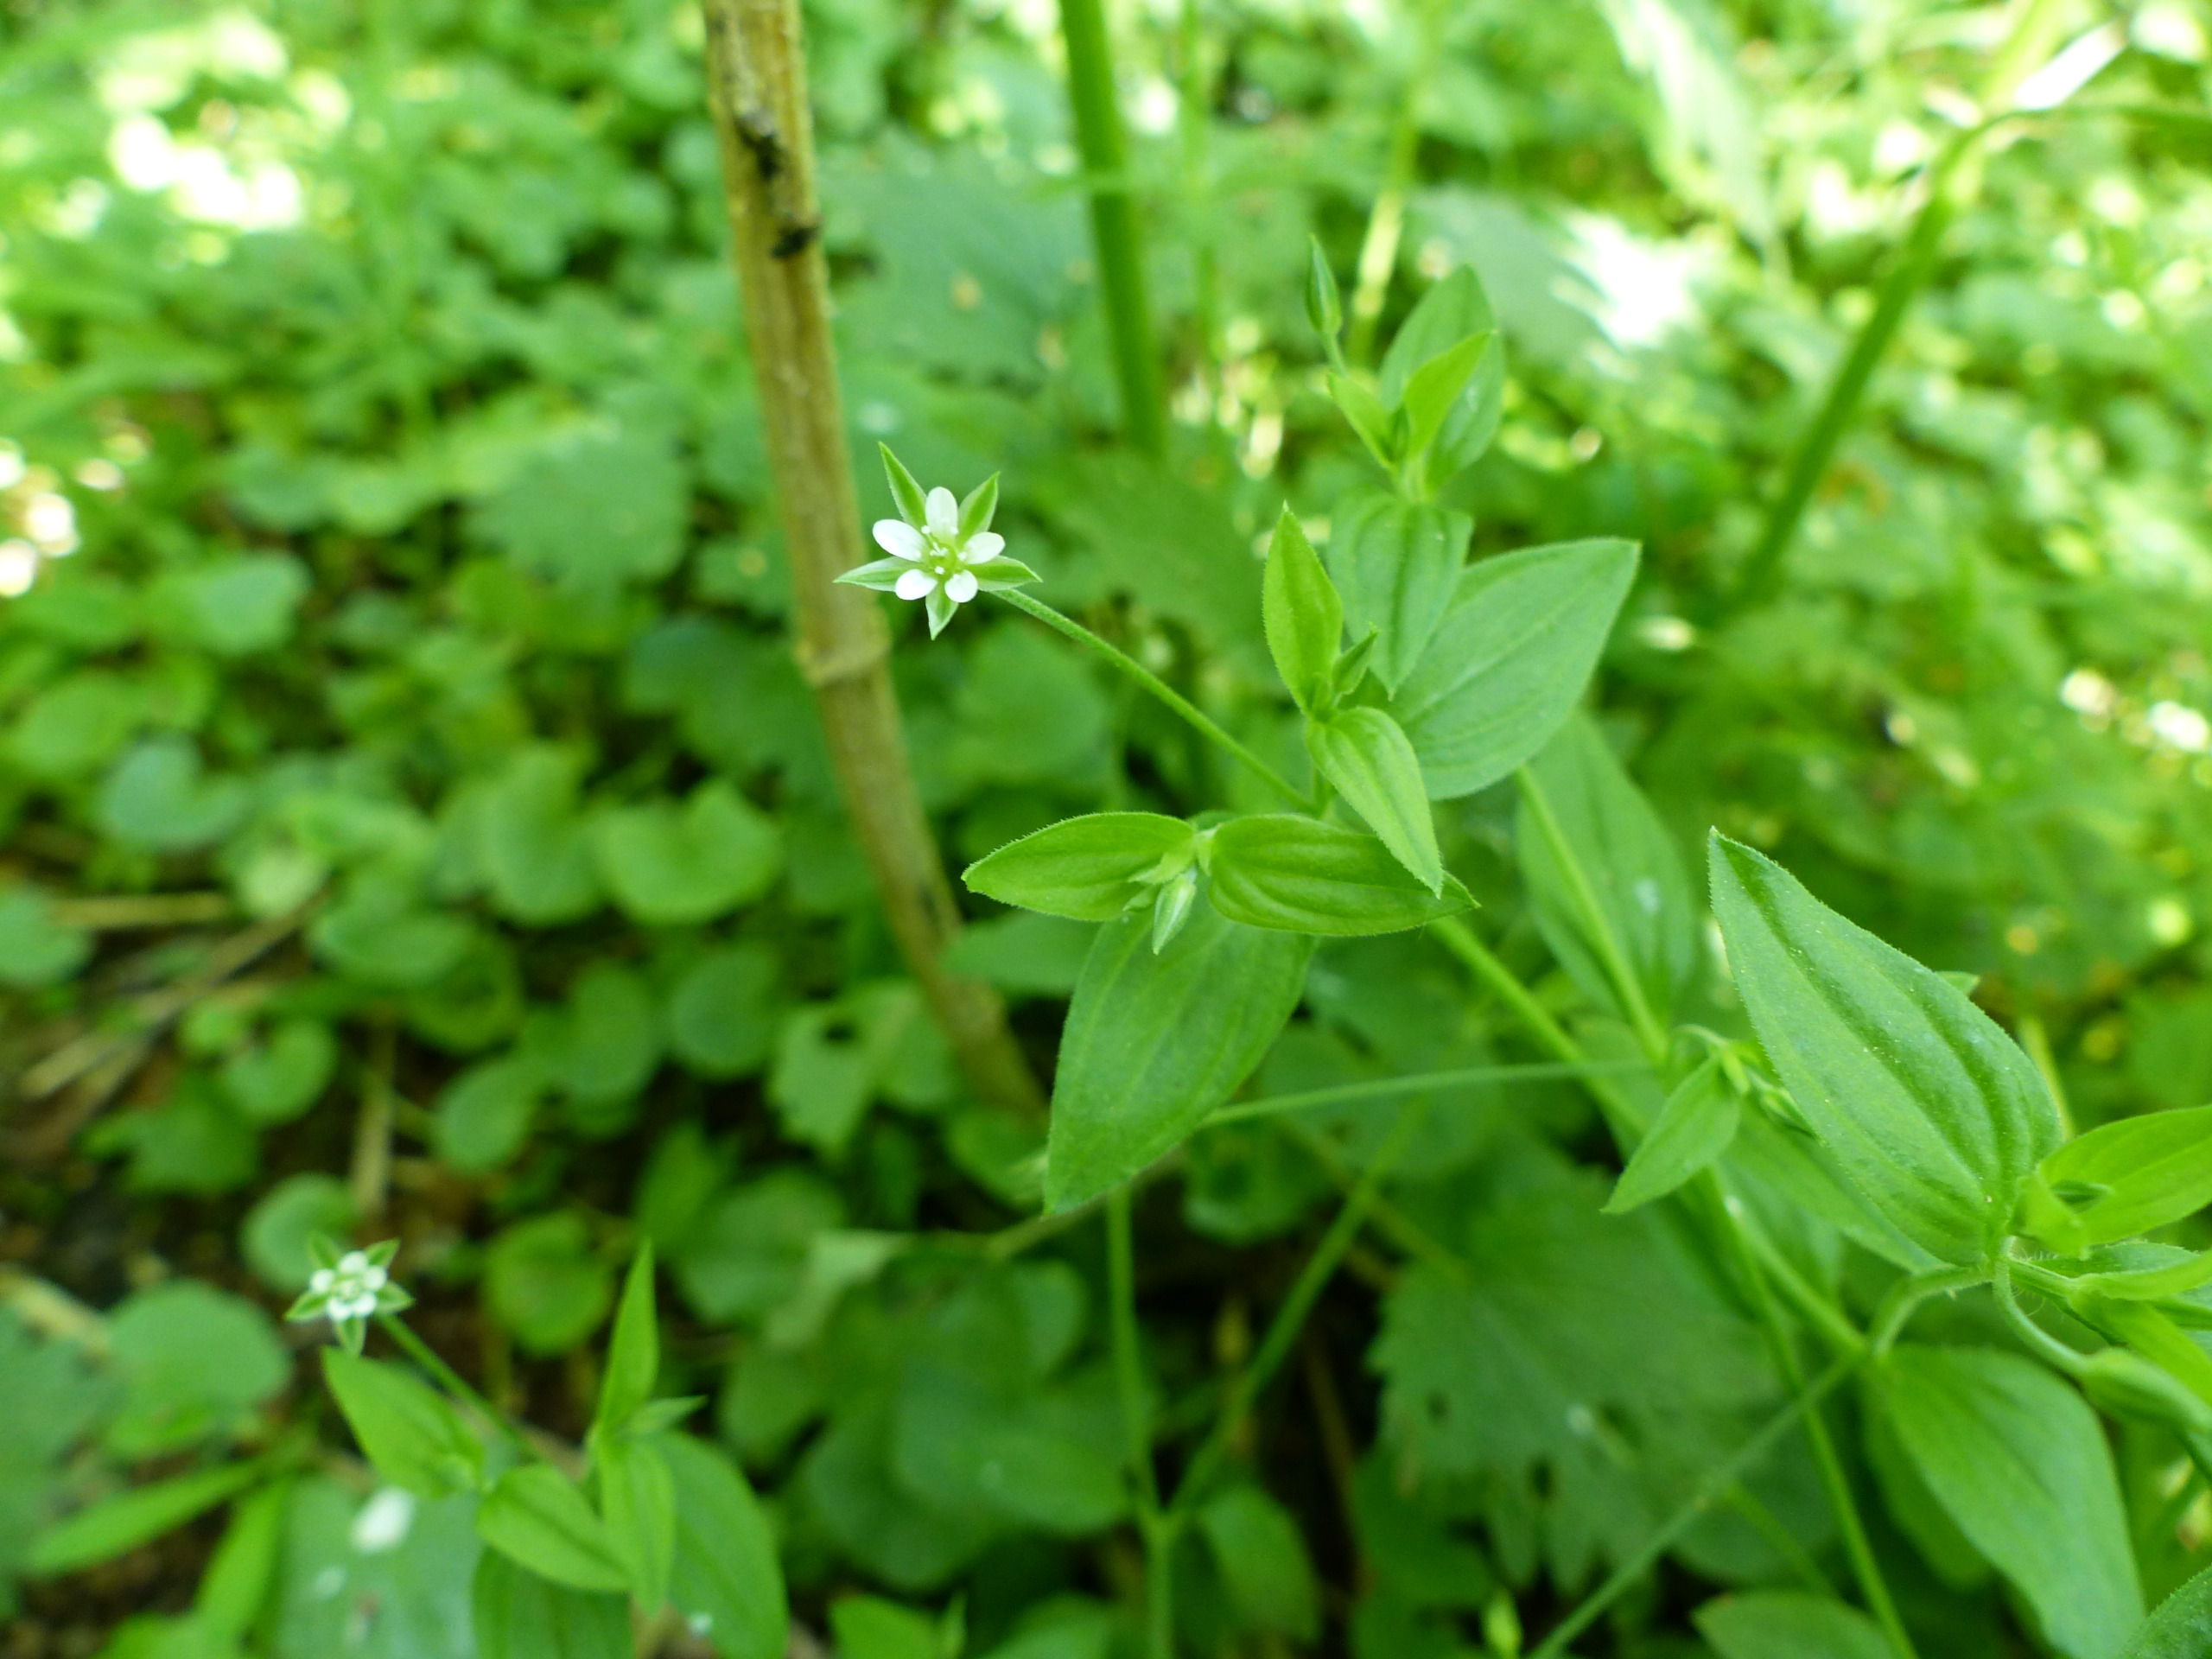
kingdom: Plantae
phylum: Tracheophyta
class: Magnoliopsida
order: Caryophyllales
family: Caryophyllaceae
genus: Moehringia
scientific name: Moehringia trinervia
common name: Skovarve
